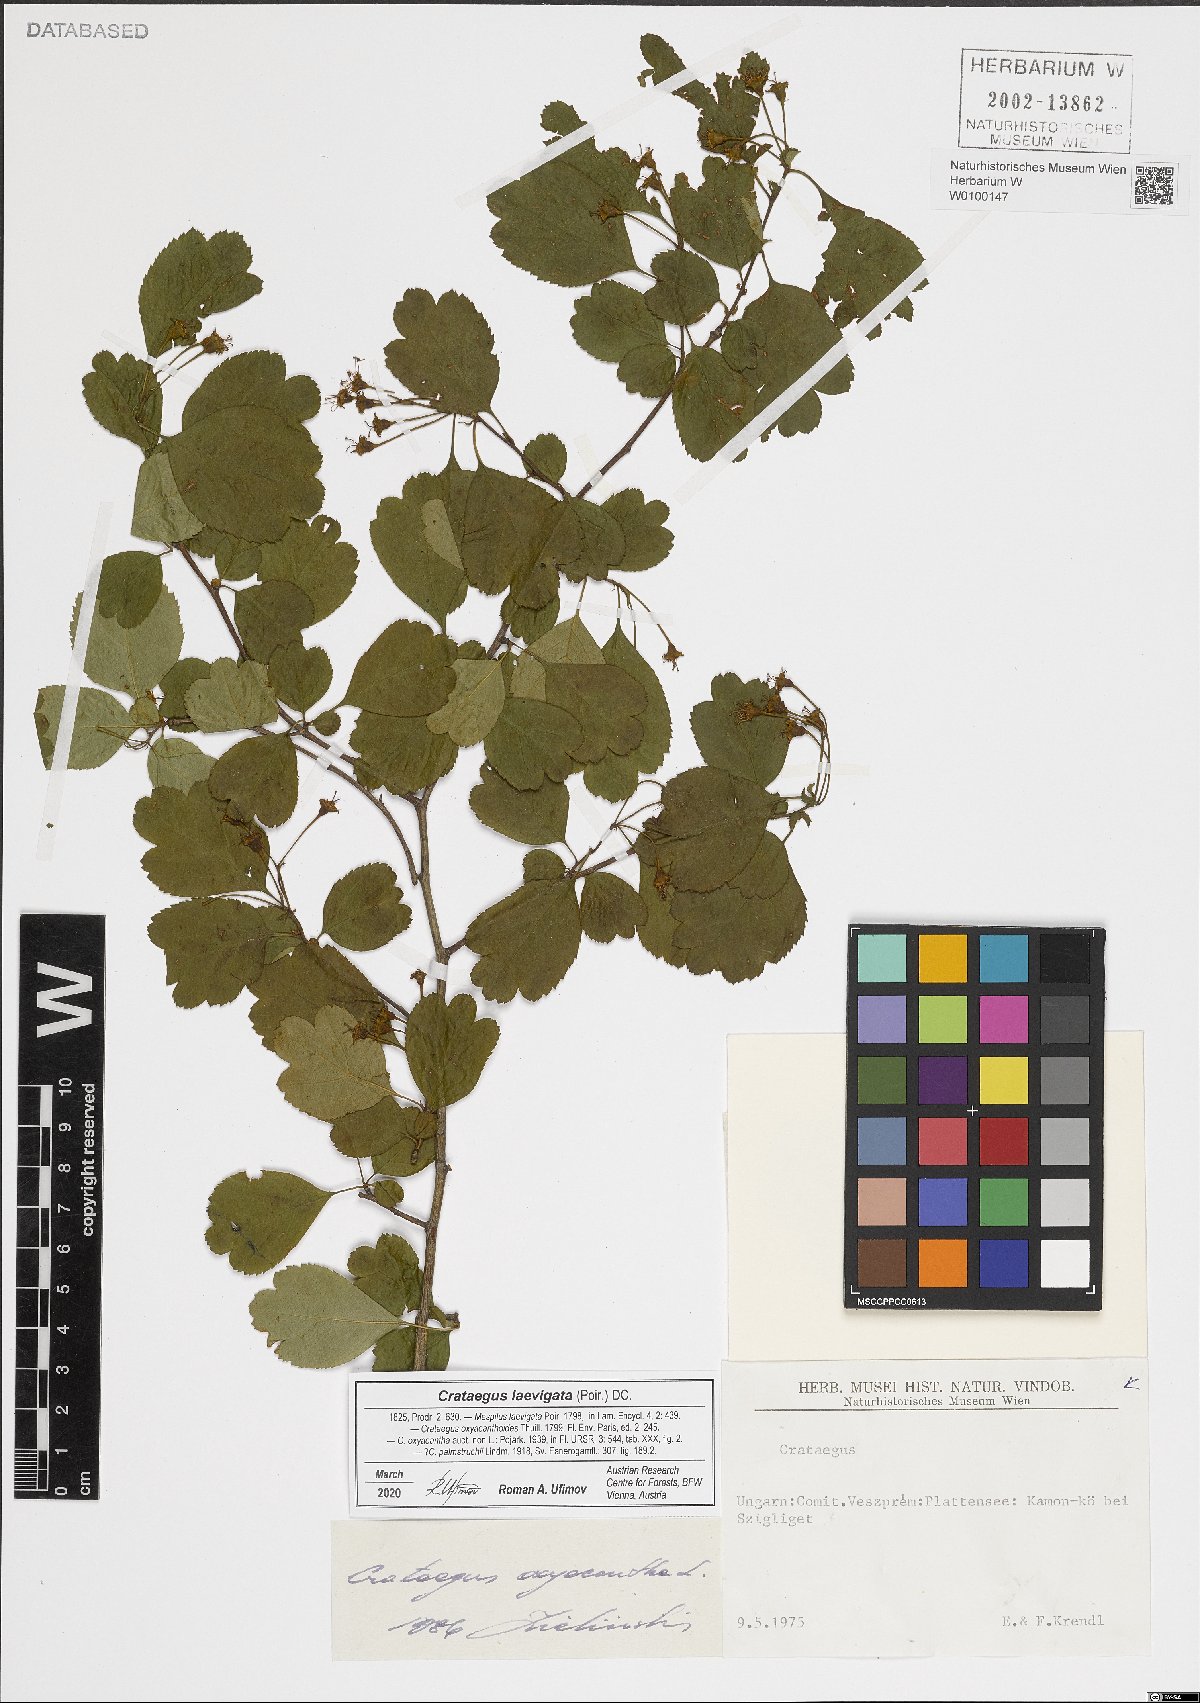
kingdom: Plantae
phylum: Tracheophyta
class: Magnoliopsida
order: Rosales
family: Rosaceae
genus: Crataegus
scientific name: Crataegus laevigata
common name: Midland hawthorn
